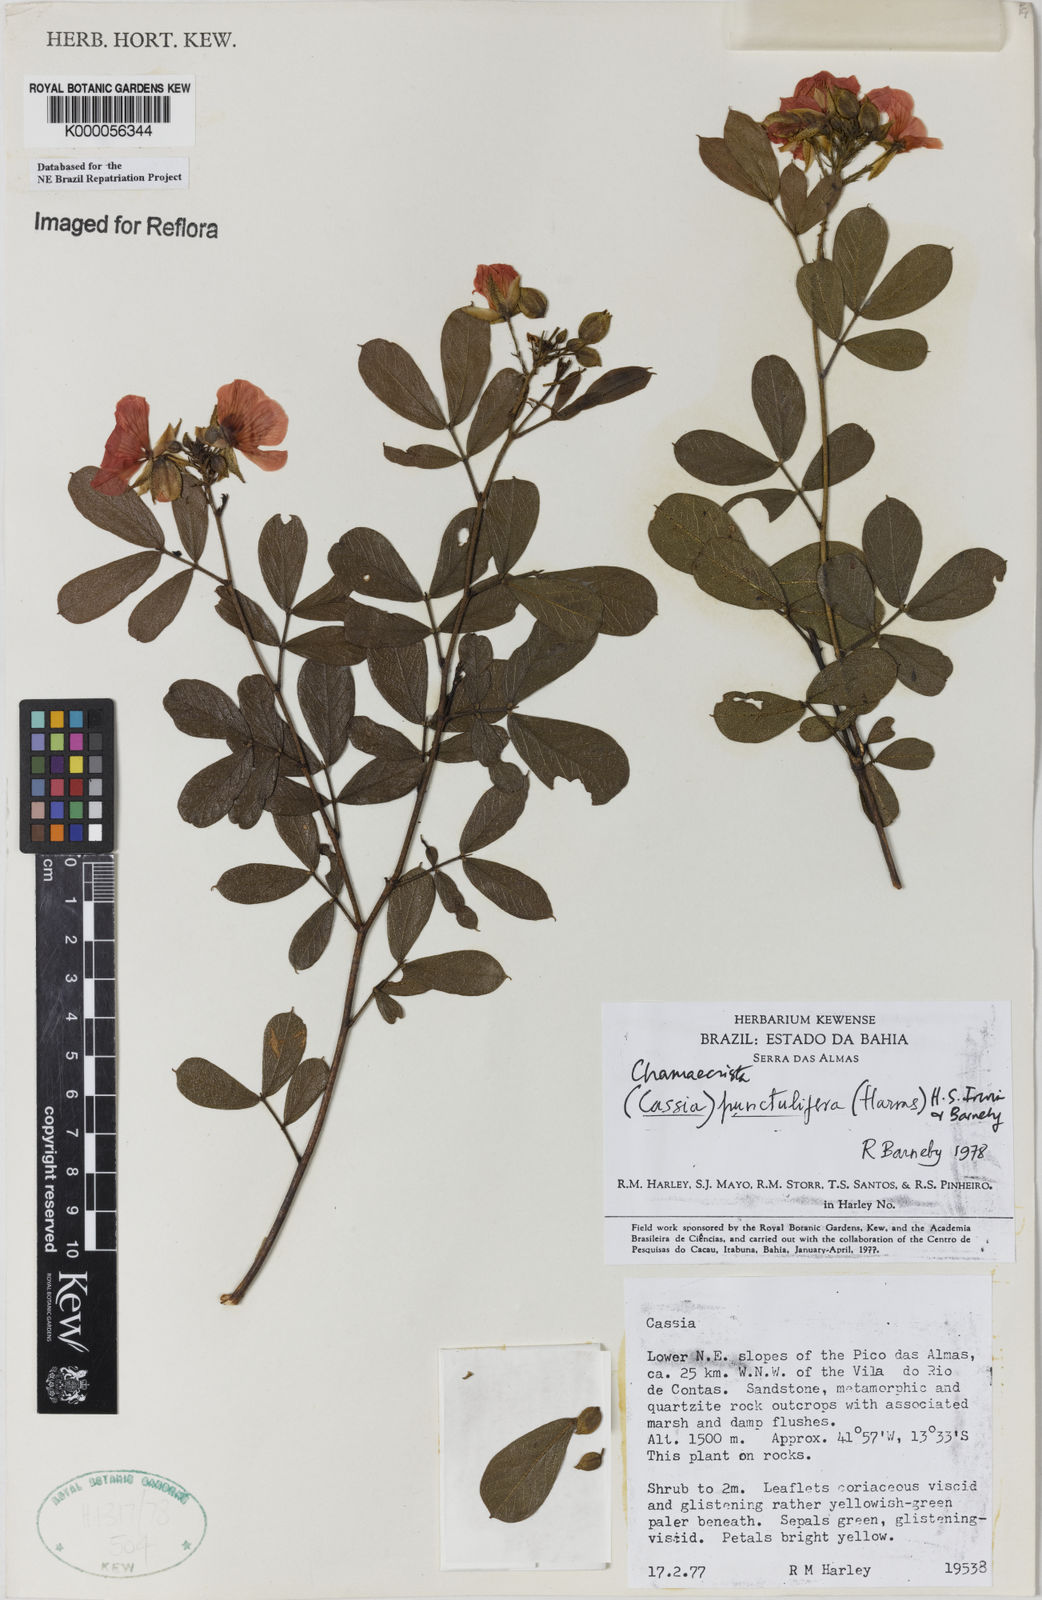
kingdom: Plantae
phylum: Tracheophyta
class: Magnoliopsida
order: Fabales
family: Fabaceae
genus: Chamaecrista
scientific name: Chamaecrista punctulifera
